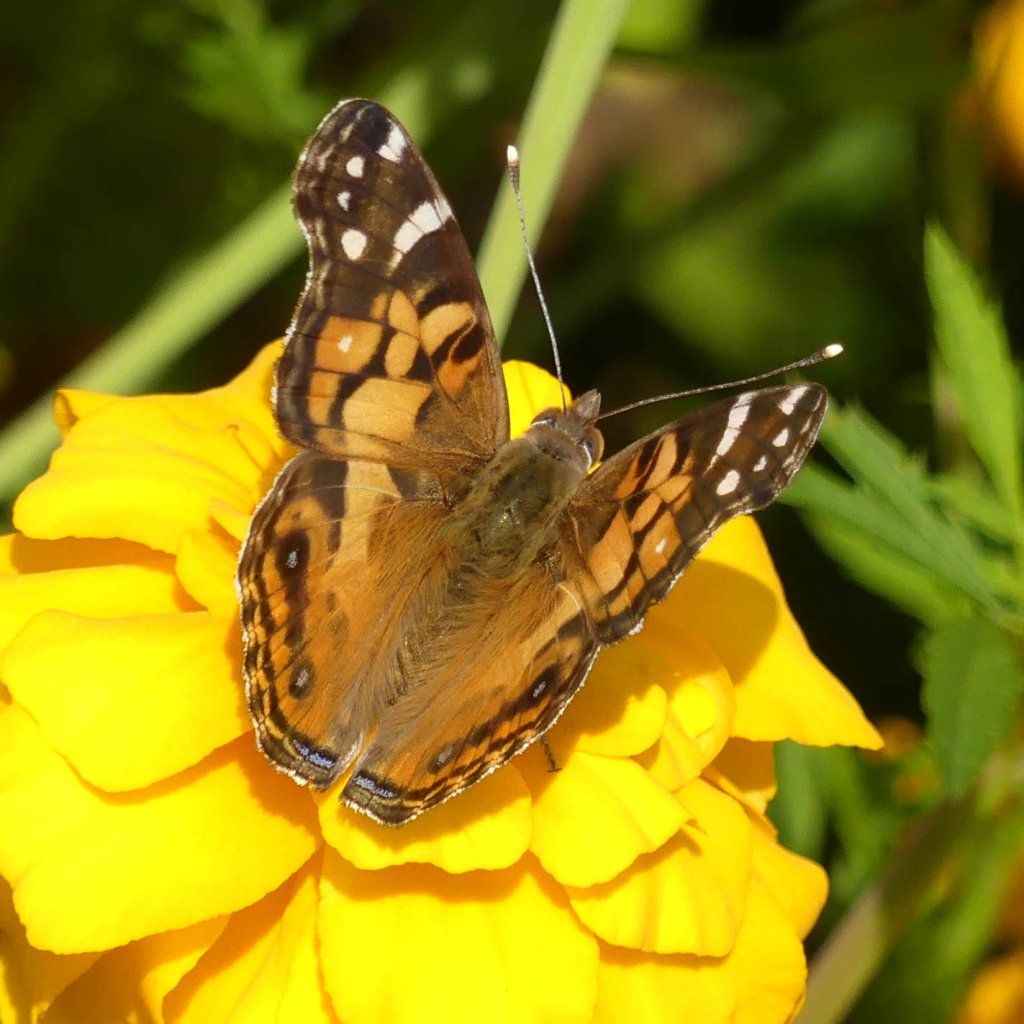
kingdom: Animalia
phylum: Arthropoda
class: Insecta
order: Lepidoptera
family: Nymphalidae
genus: Vanessa
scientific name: Vanessa virginiensis
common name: American Lady
